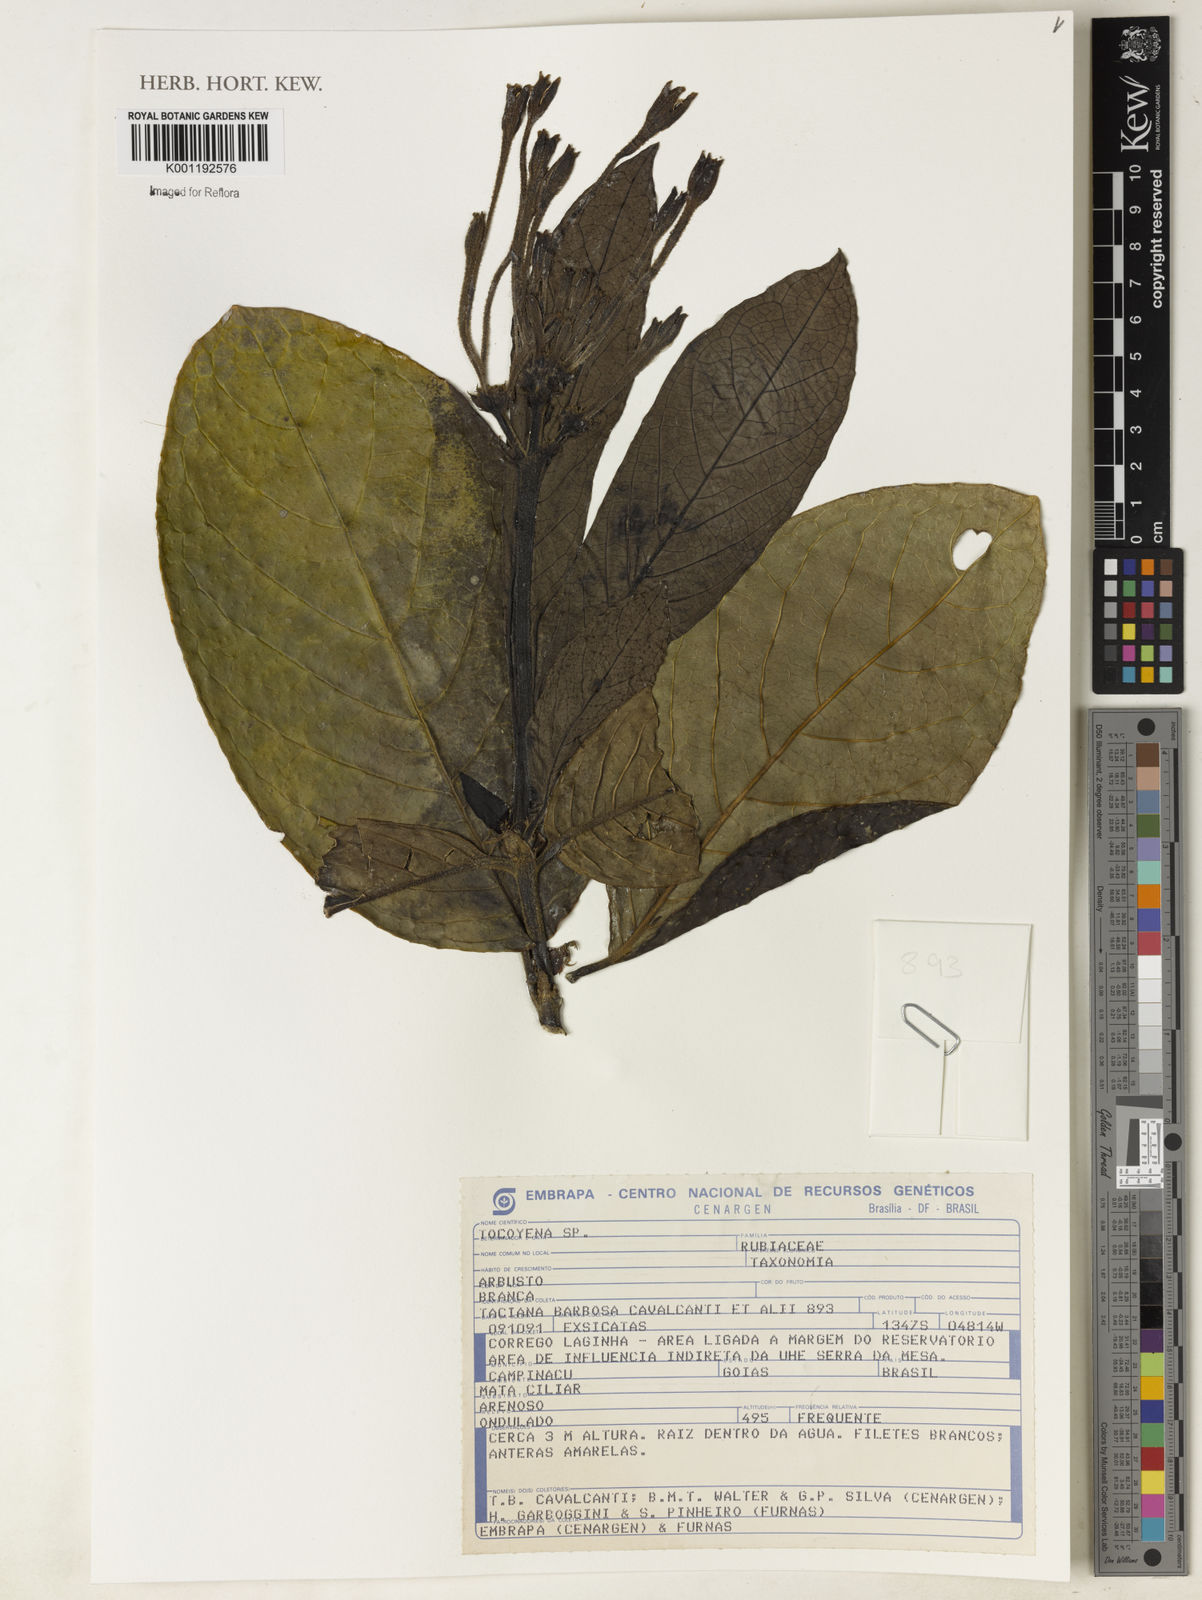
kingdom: Plantae
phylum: Tracheophyta
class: Magnoliopsida
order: Gentianales
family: Rubiaceae
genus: Tocoyena
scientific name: Tocoyena
